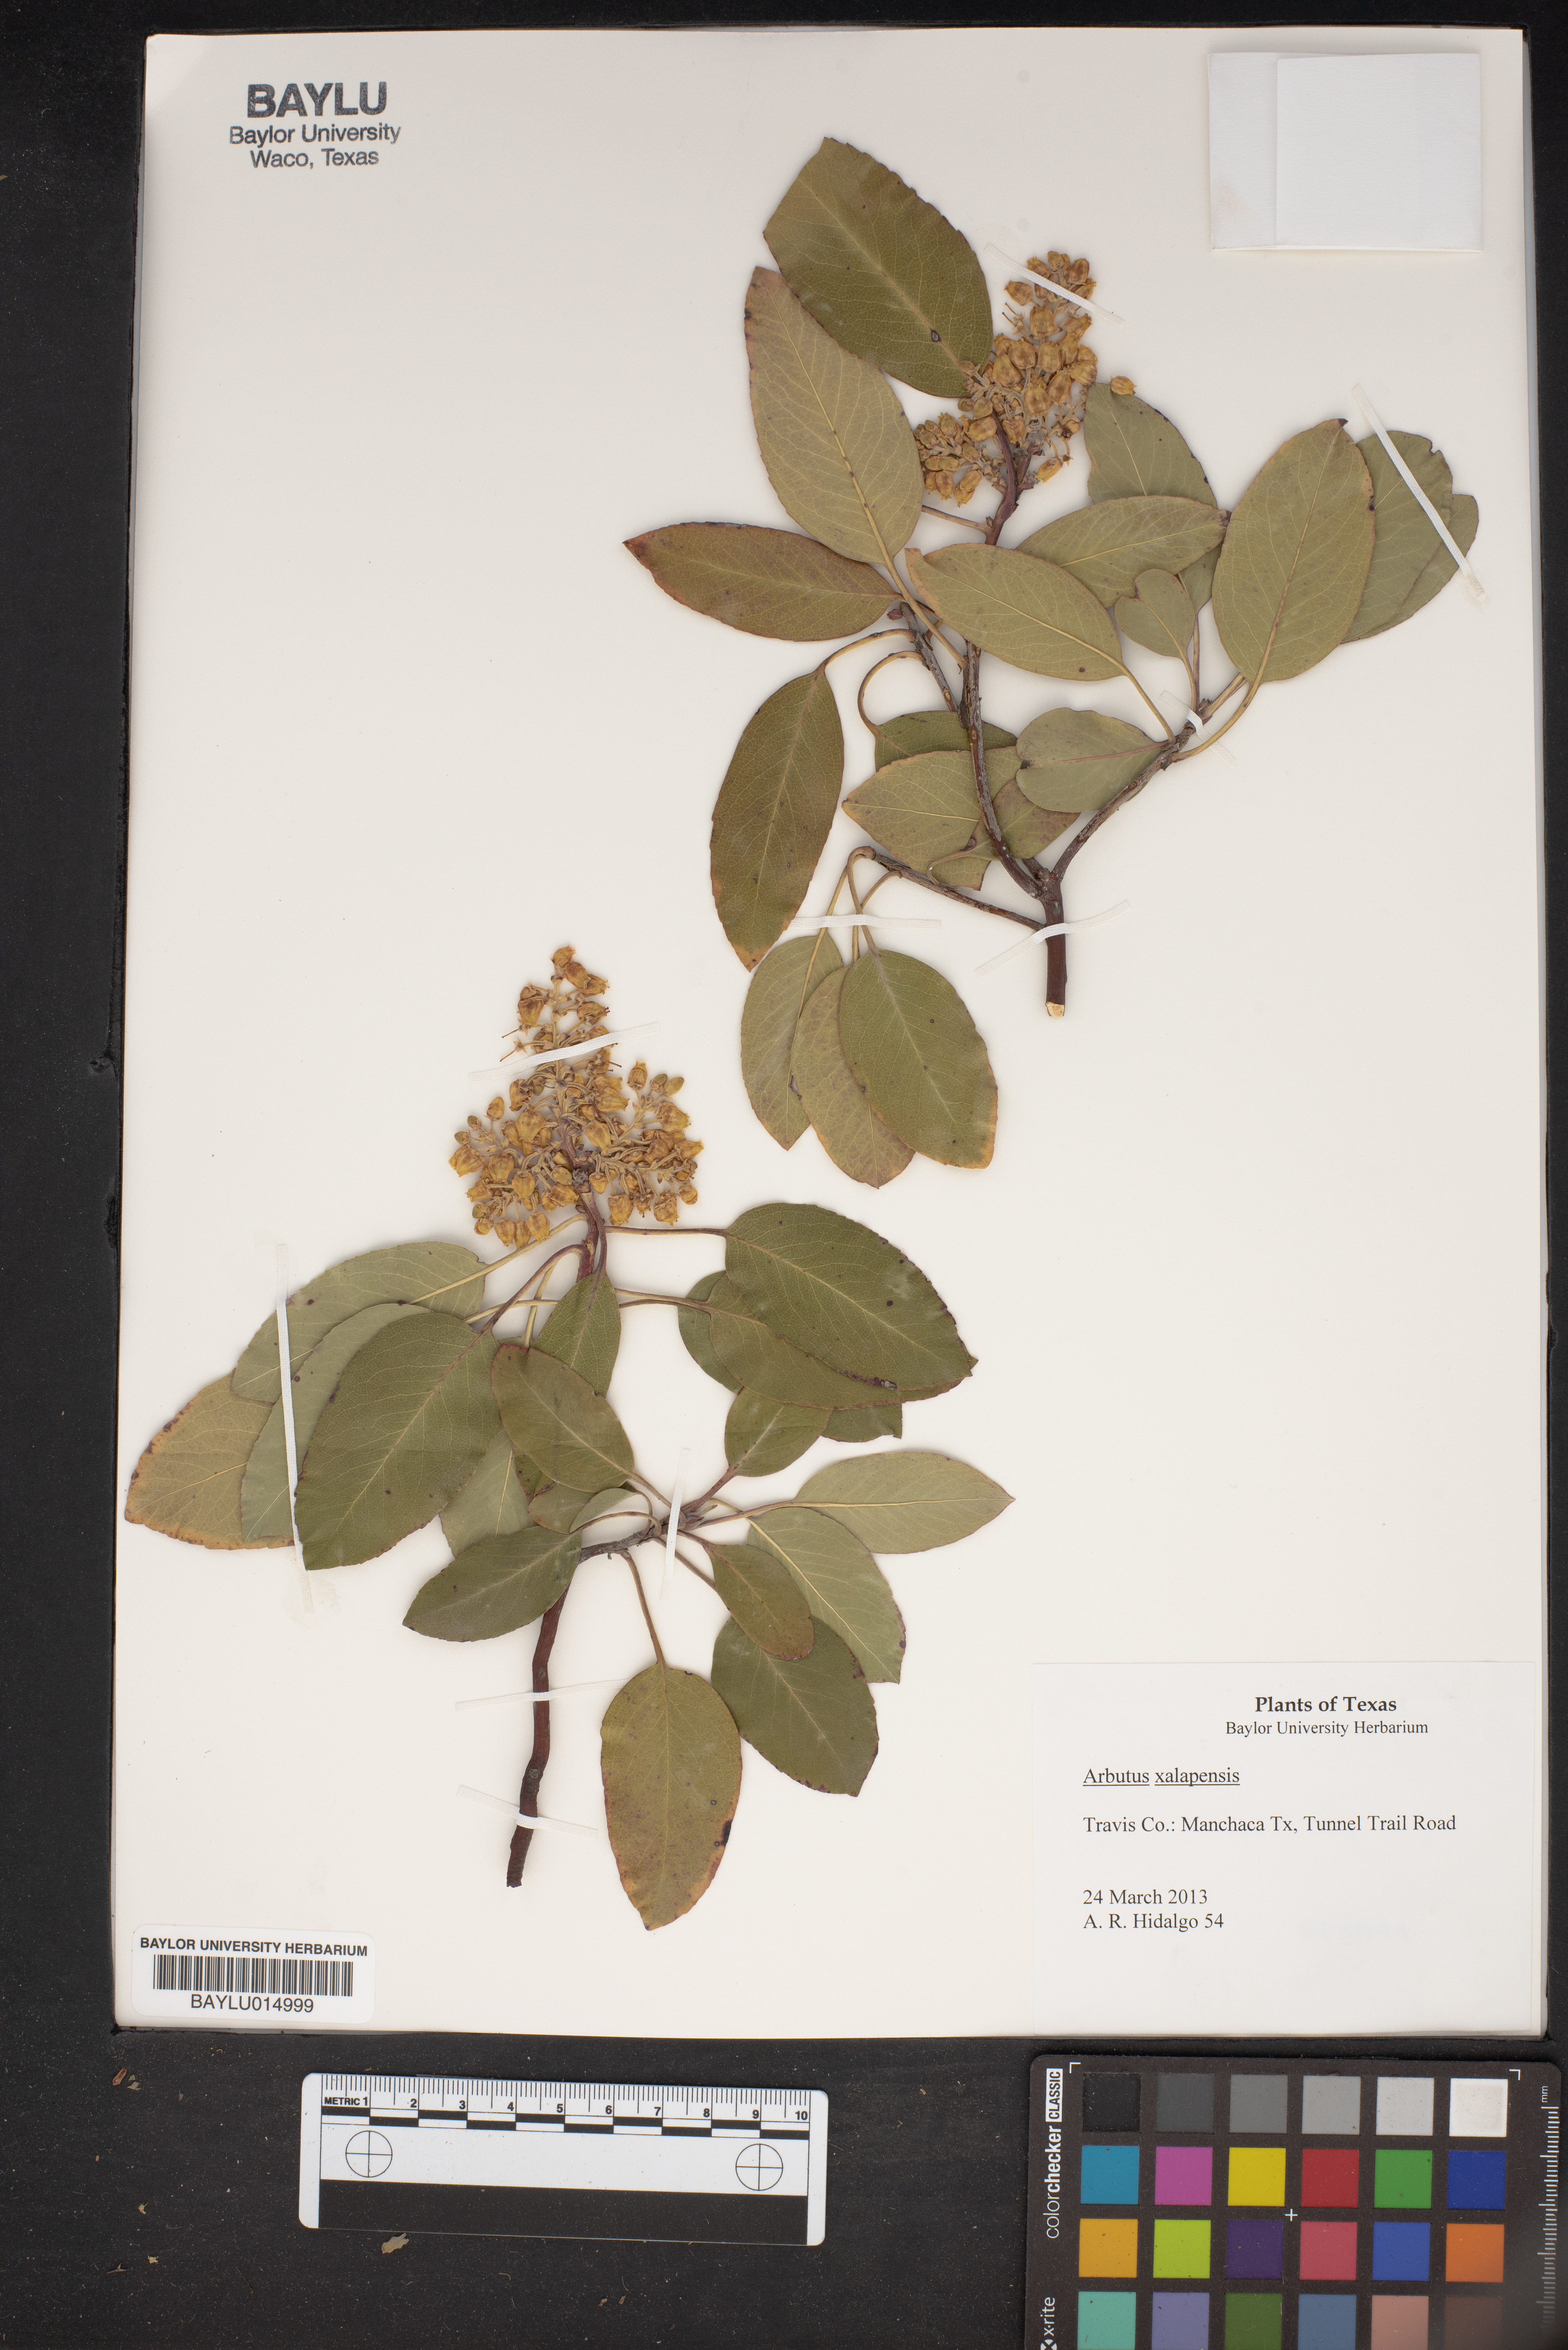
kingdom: Plantae
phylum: Tracheophyta
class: Magnoliopsida
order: Ericales
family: Ericaceae
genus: Arbutus
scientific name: Arbutus xalapensis
